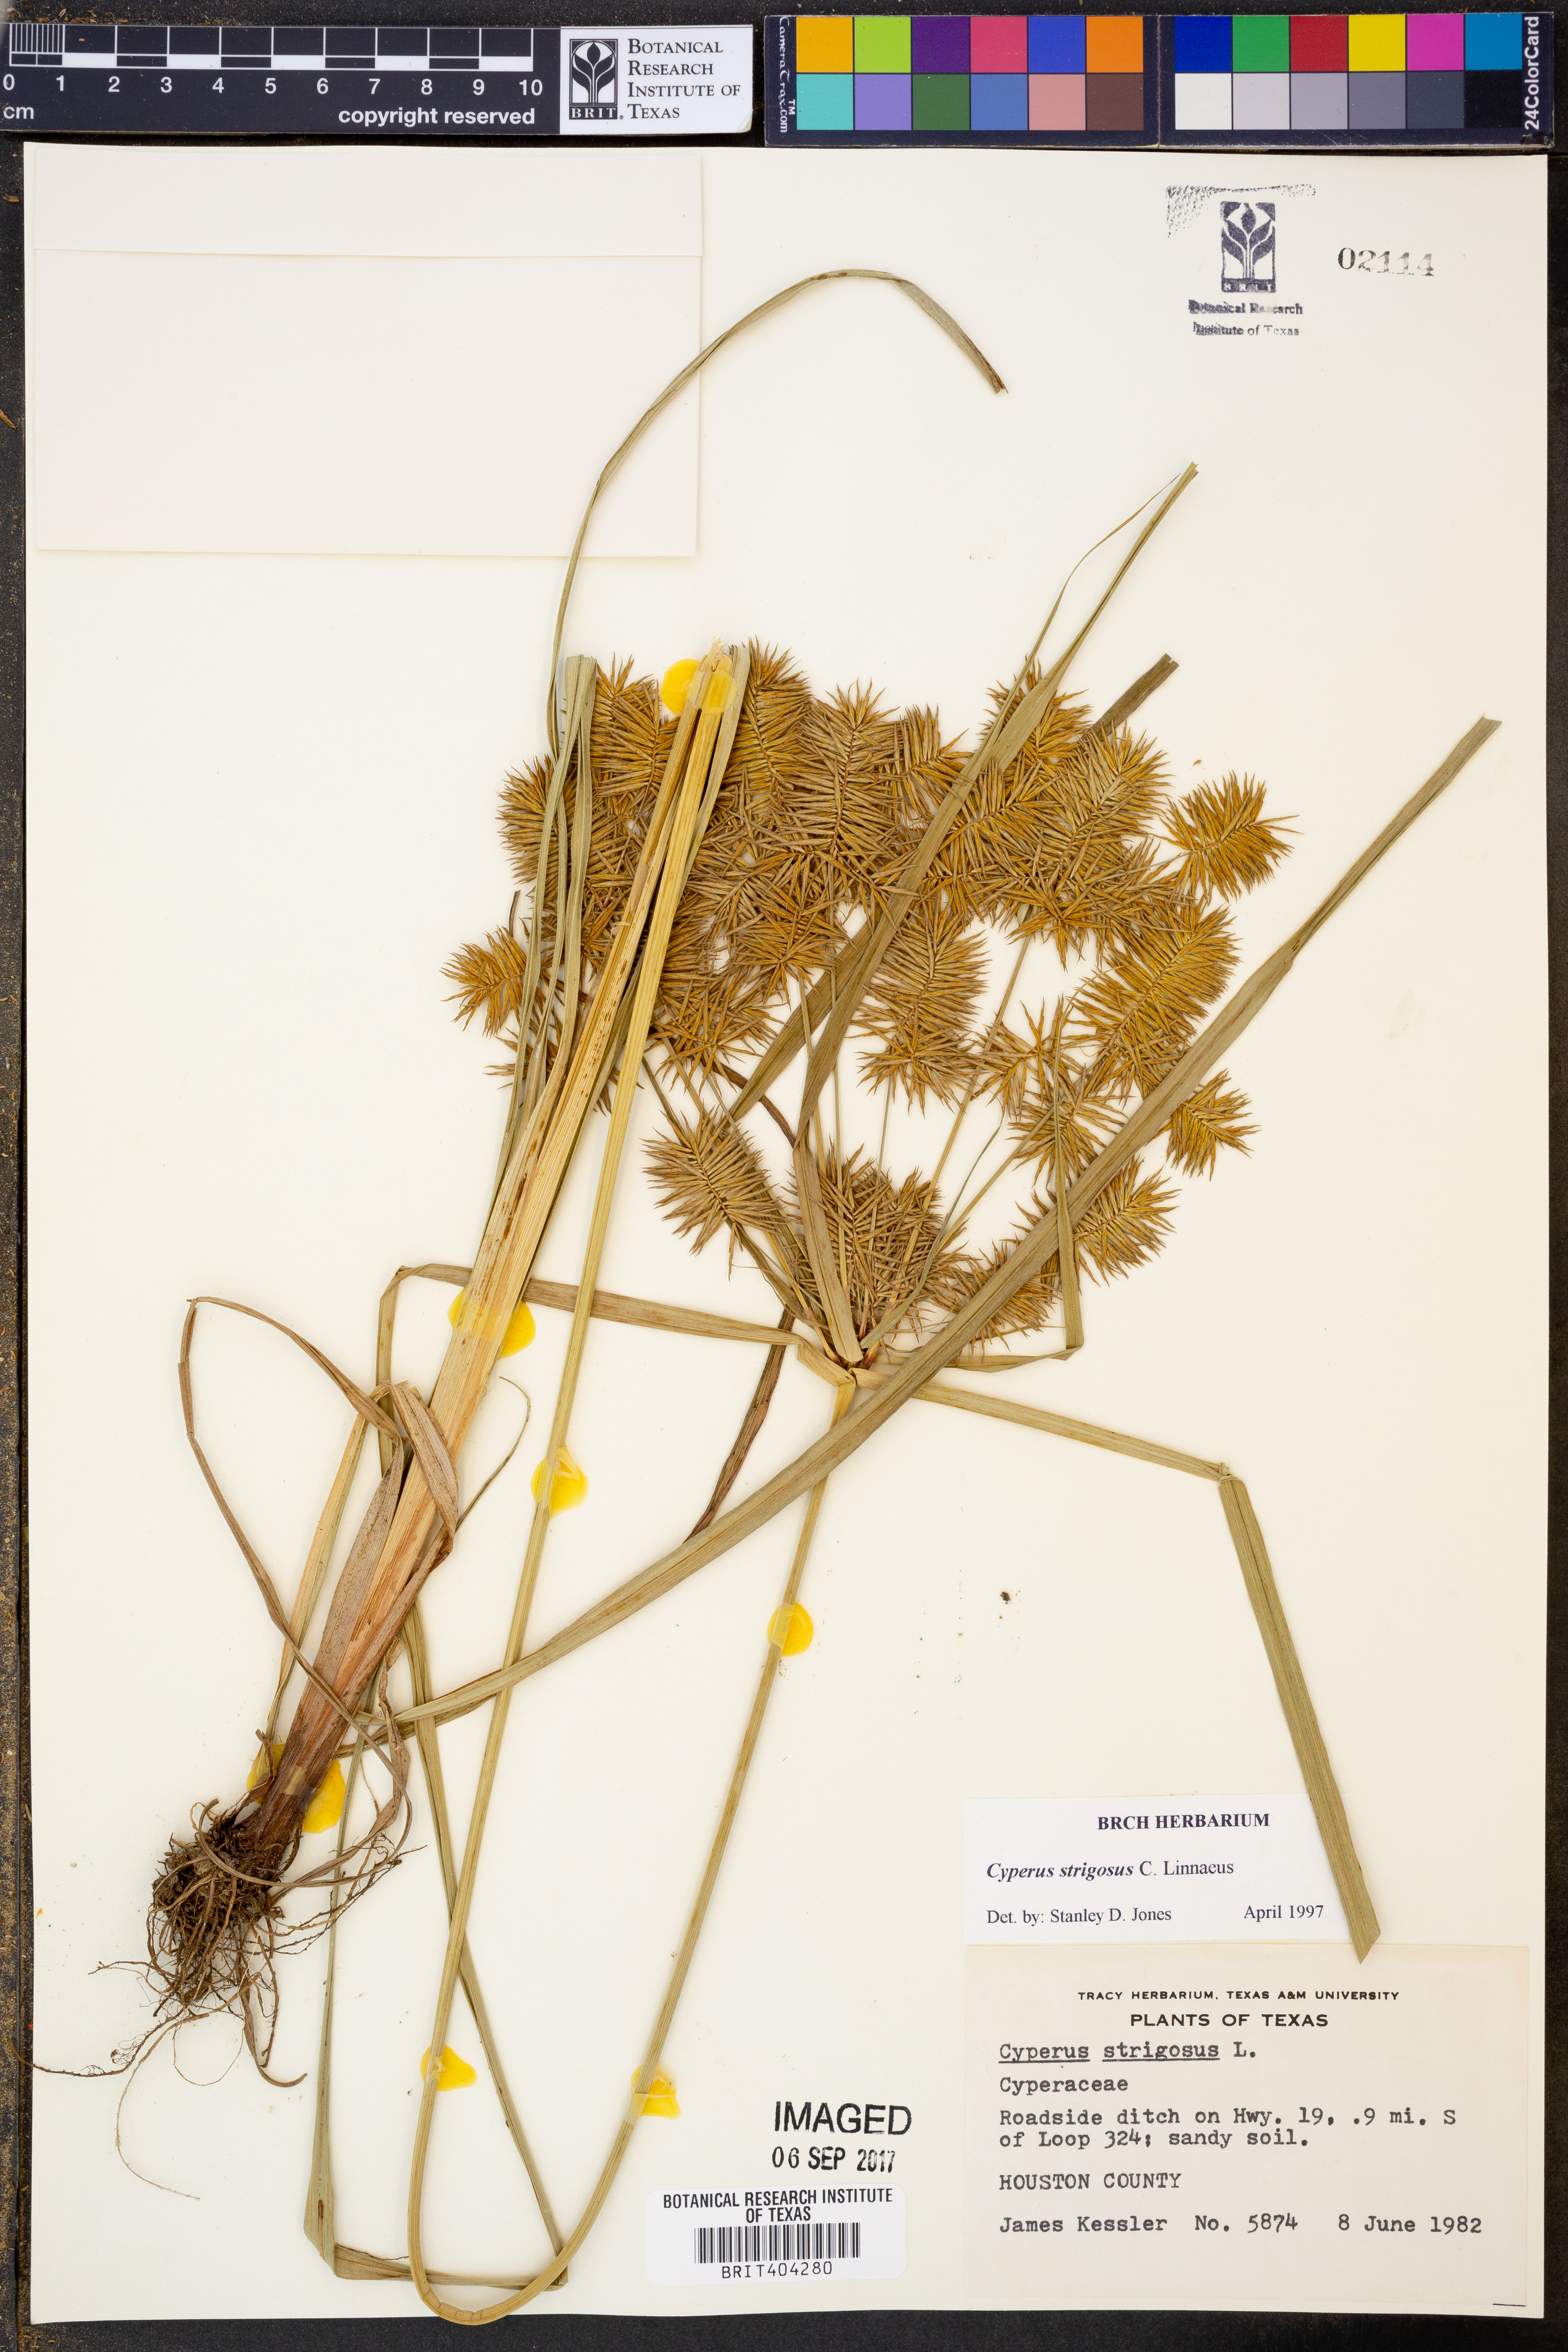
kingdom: Plantae
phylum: Tracheophyta
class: Liliopsida
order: Poales
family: Cyperaceae
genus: Cyperus
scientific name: Cyperus strigosus
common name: False nutsedge
